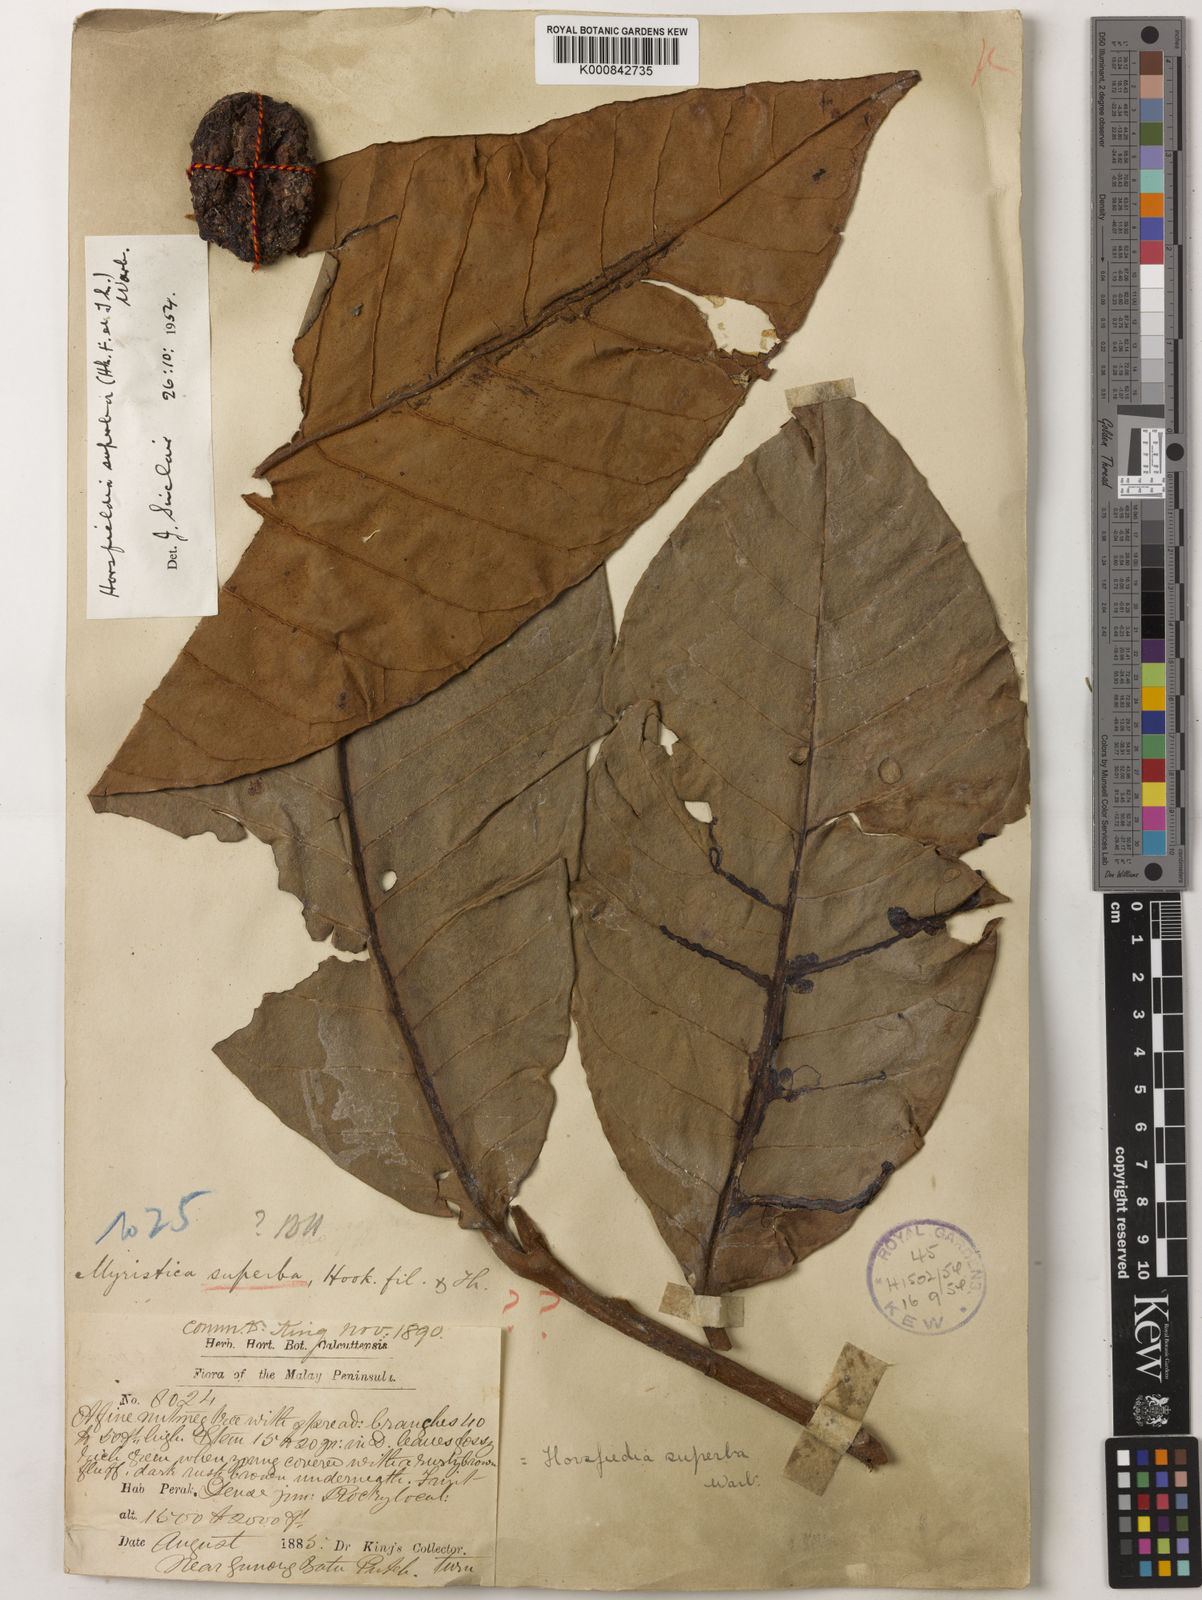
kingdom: Plantae
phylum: Tracheophyta
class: Magnoliopsida
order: Magnoliales
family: Myristicaceae
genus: Horsfieldia
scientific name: Horsfieldia superba
